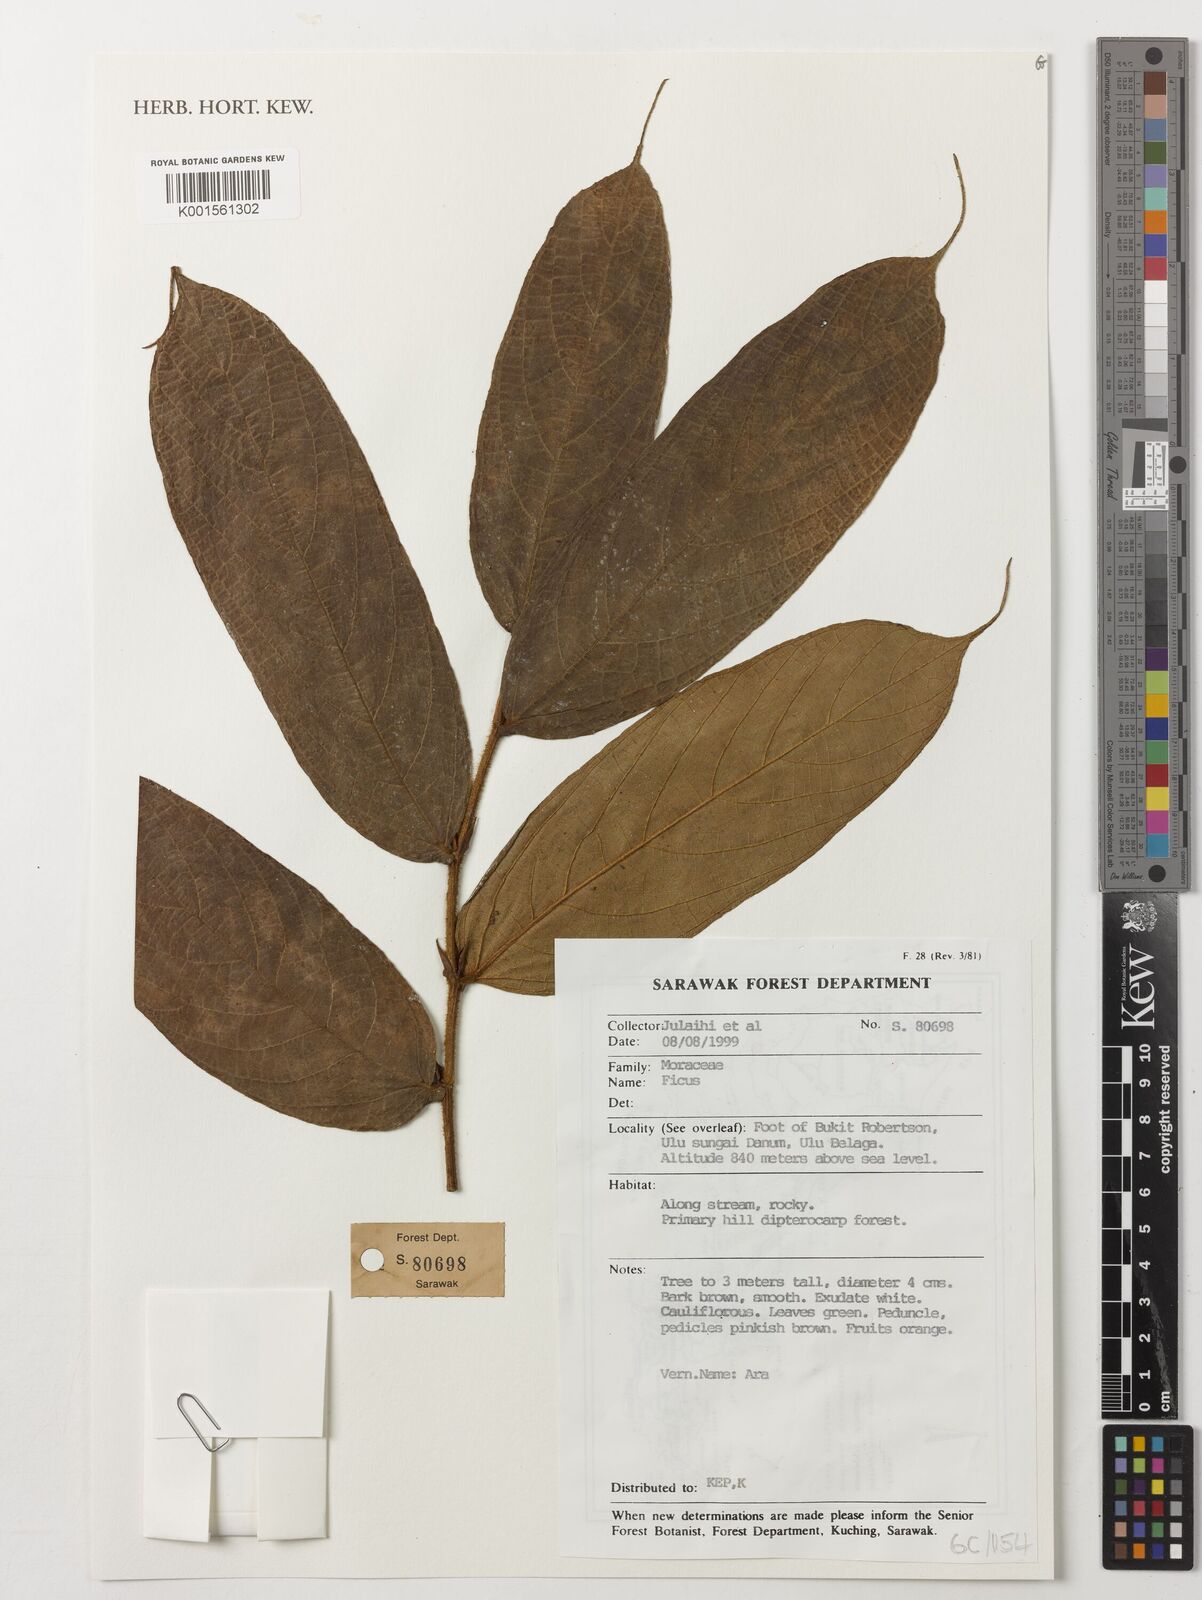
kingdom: Plantae
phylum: Tracheophyta
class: Magnoliopsida
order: Rosales
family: Moraceae
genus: Ficus
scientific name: Ficus
